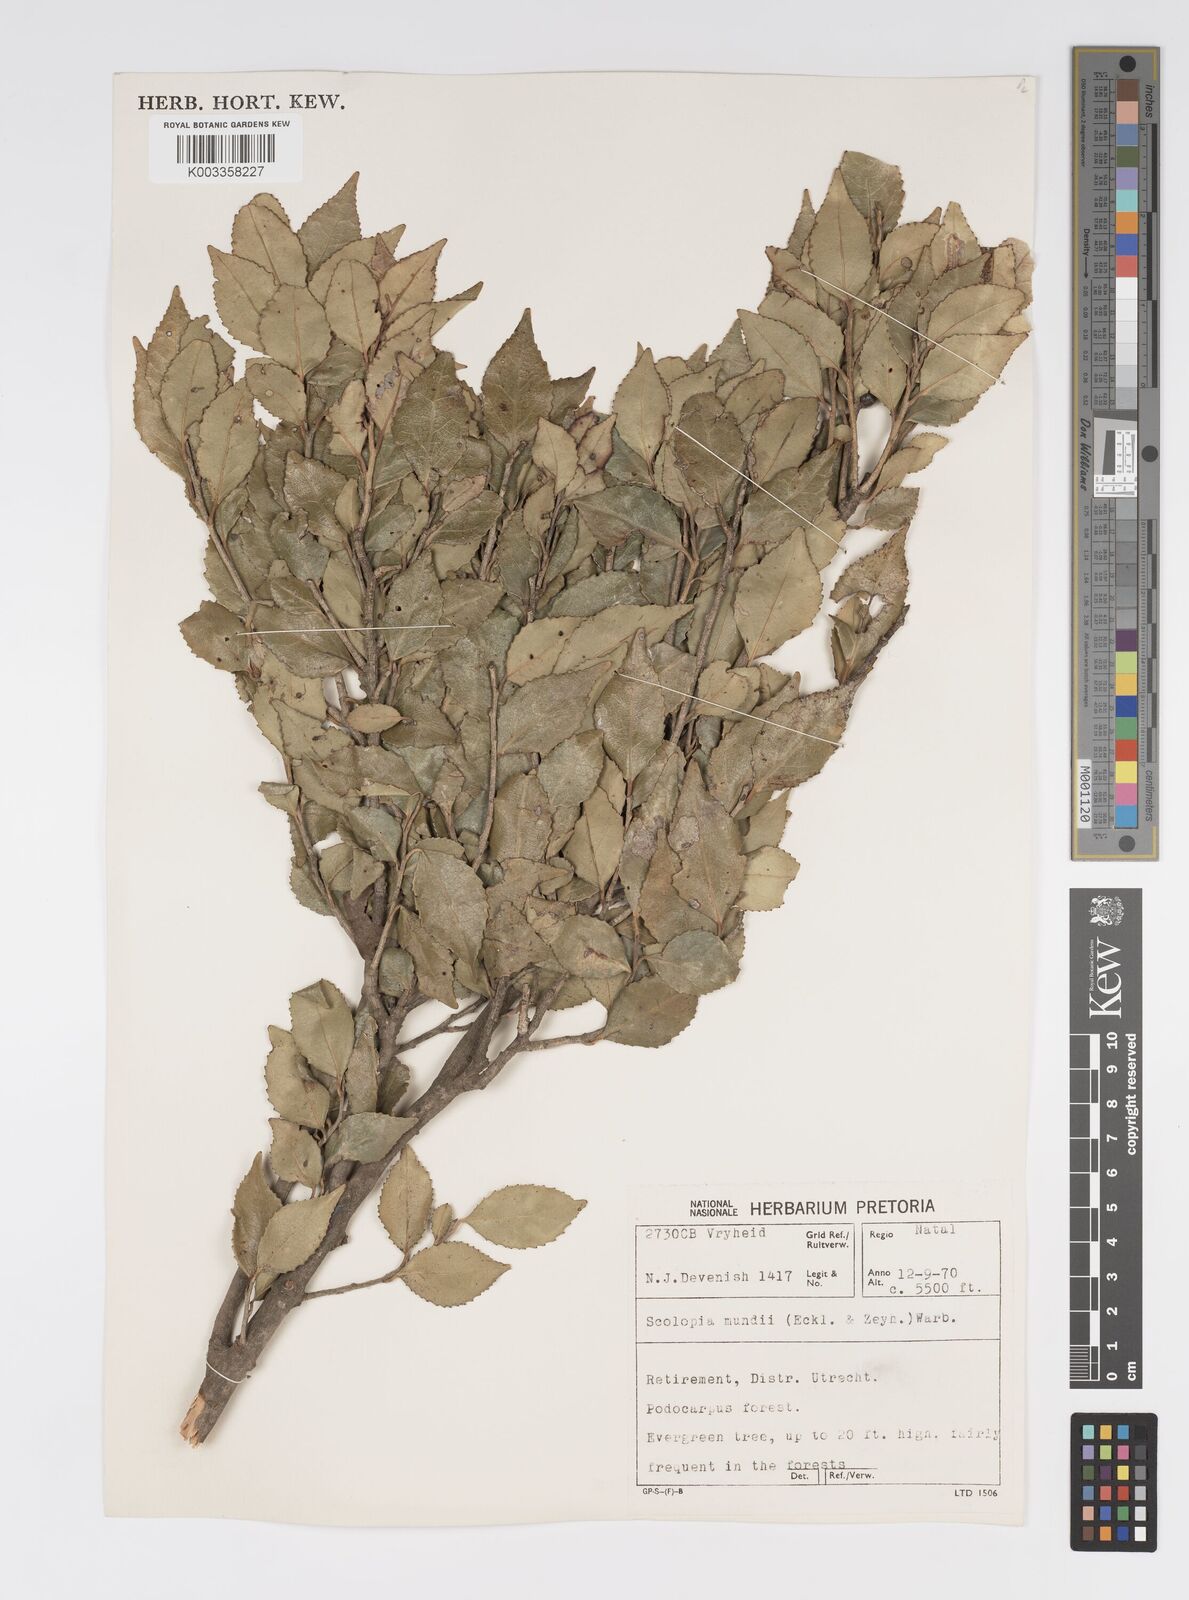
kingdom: Plantae
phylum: Tracheophyta
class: Magnoliopsida
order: Malpighiales
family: Salicaceae
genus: Scolopia
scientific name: Scolopia mundii
